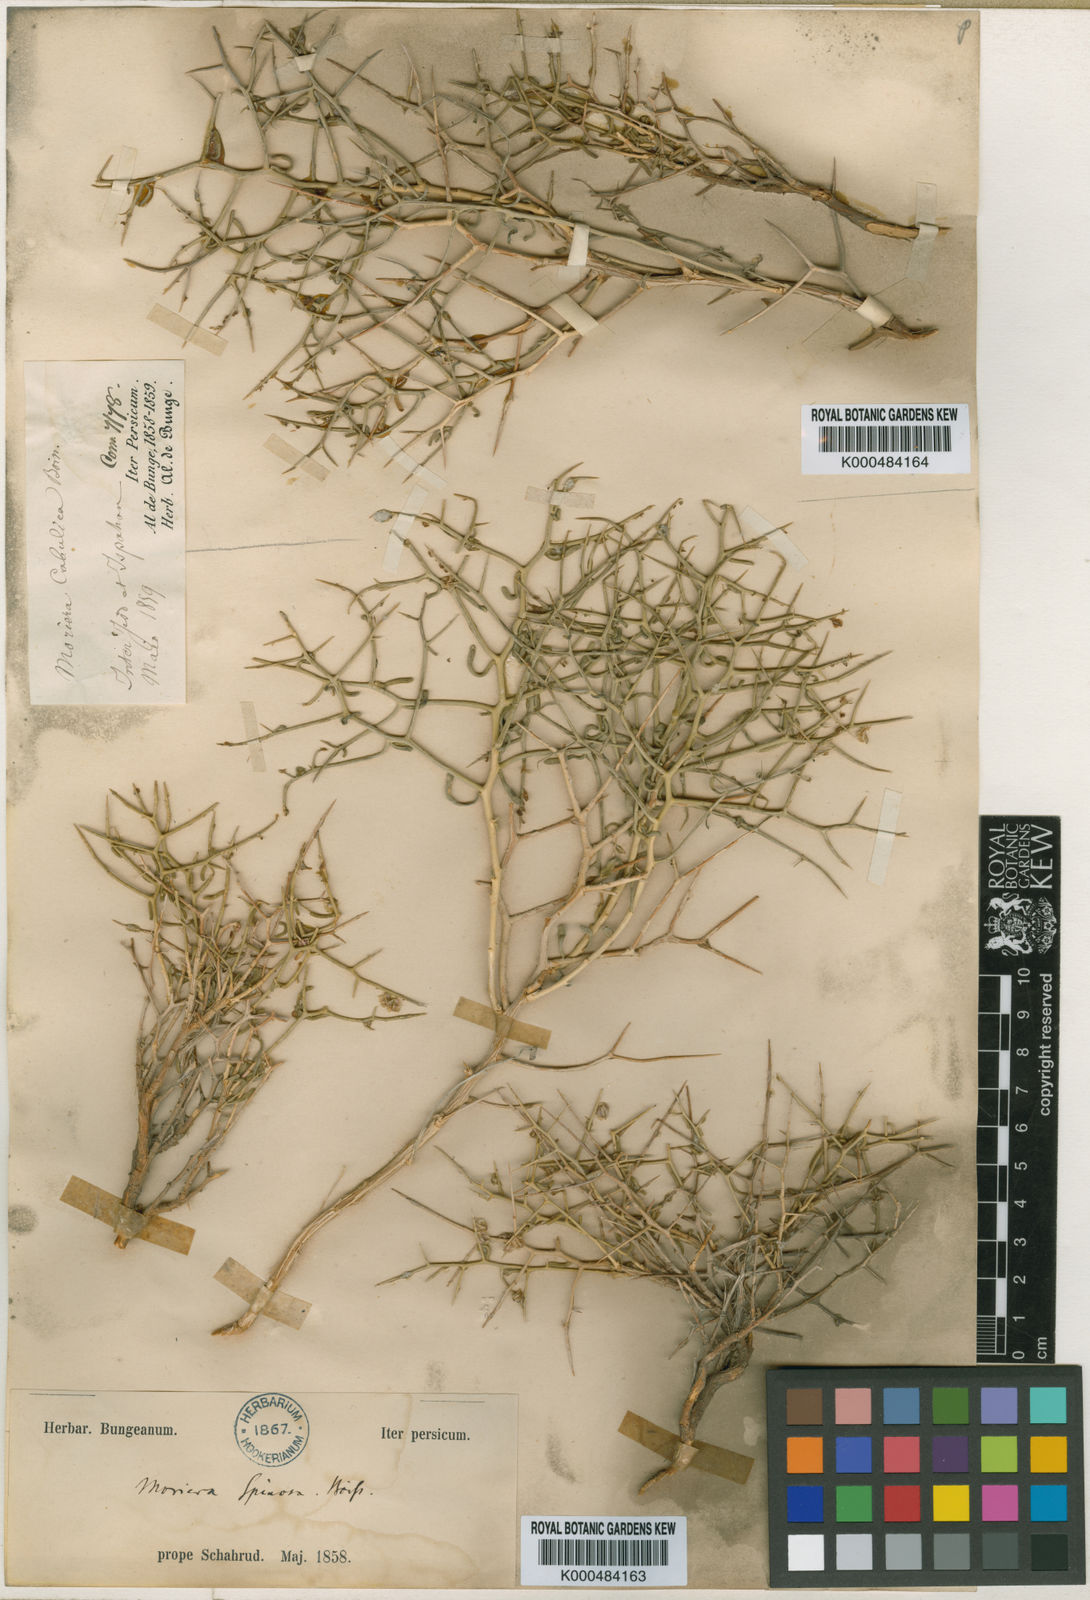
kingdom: Plantae
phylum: Tracheophyta
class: Magnoliopsida
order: Brassicales
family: Brassicaceae
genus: Aethionema
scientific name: Aethionema spinosum
